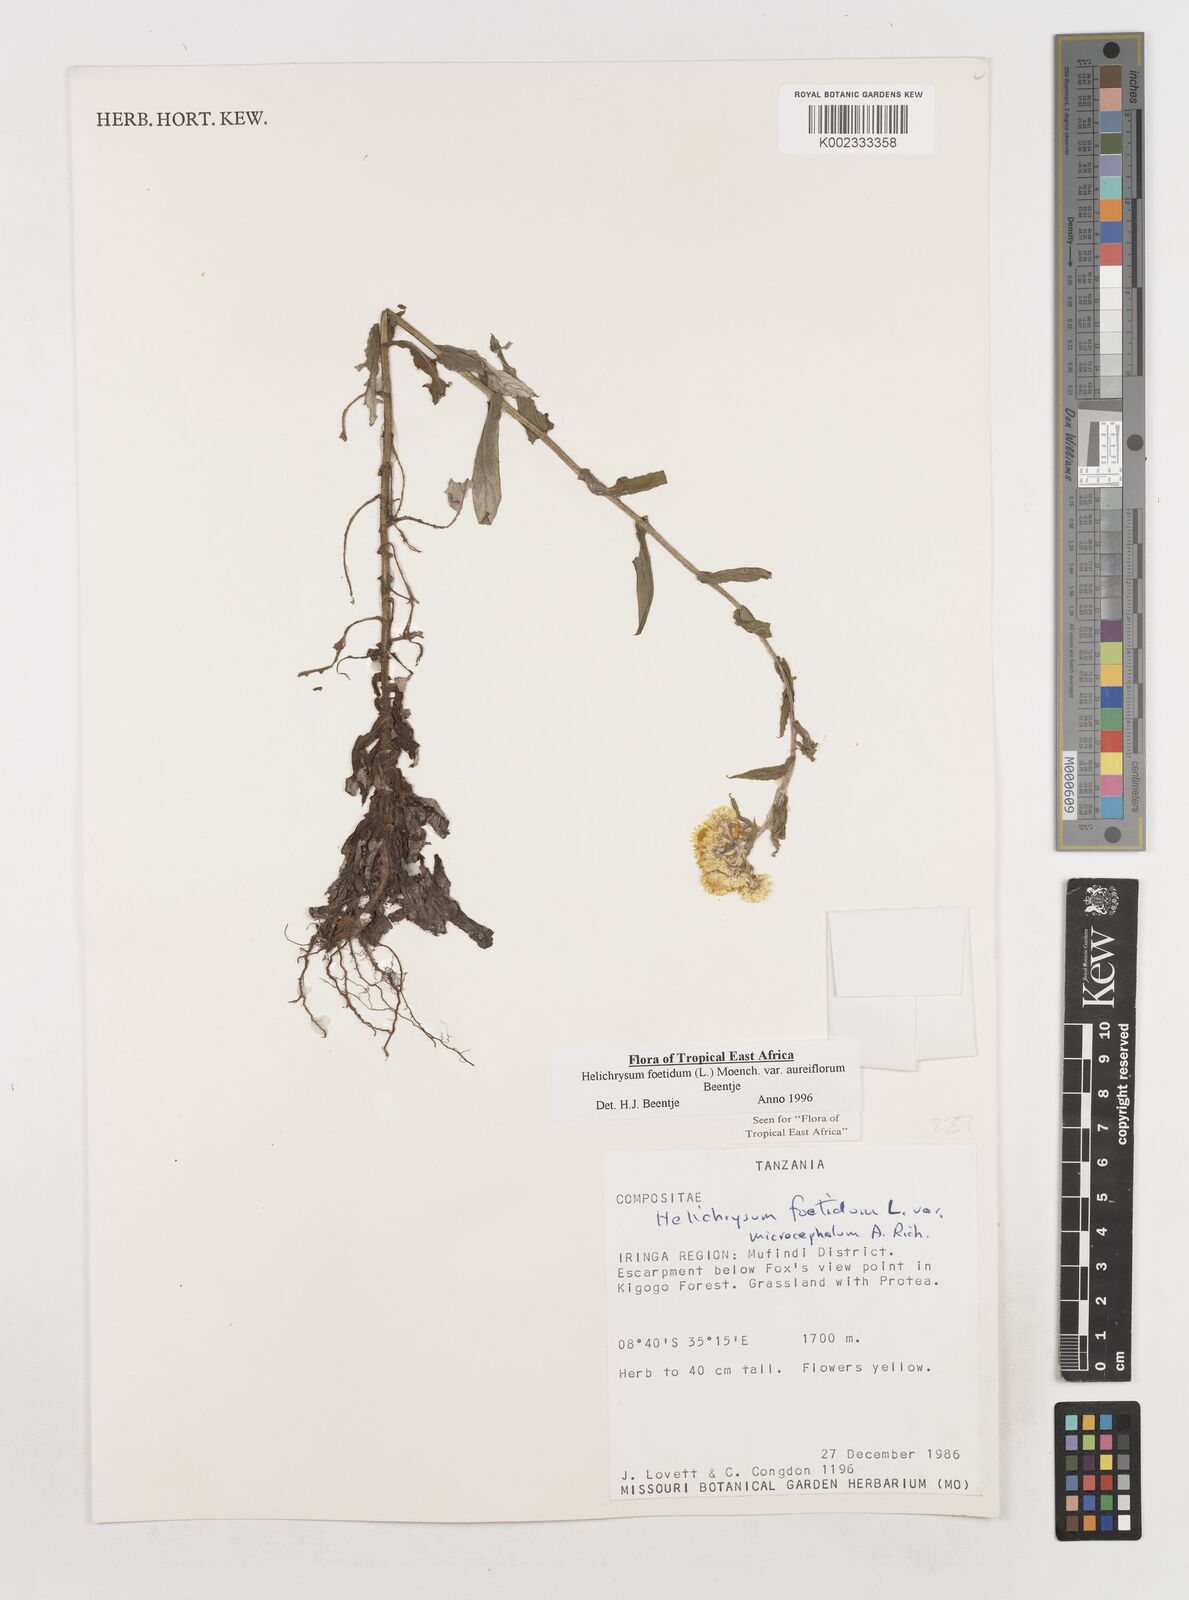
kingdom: Plantae
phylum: Tracheophyta
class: Magnoliopsida
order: Asterales
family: Asteraceae
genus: Helichrysum
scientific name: Helichrysum foetidum
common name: Stinking everlasting
